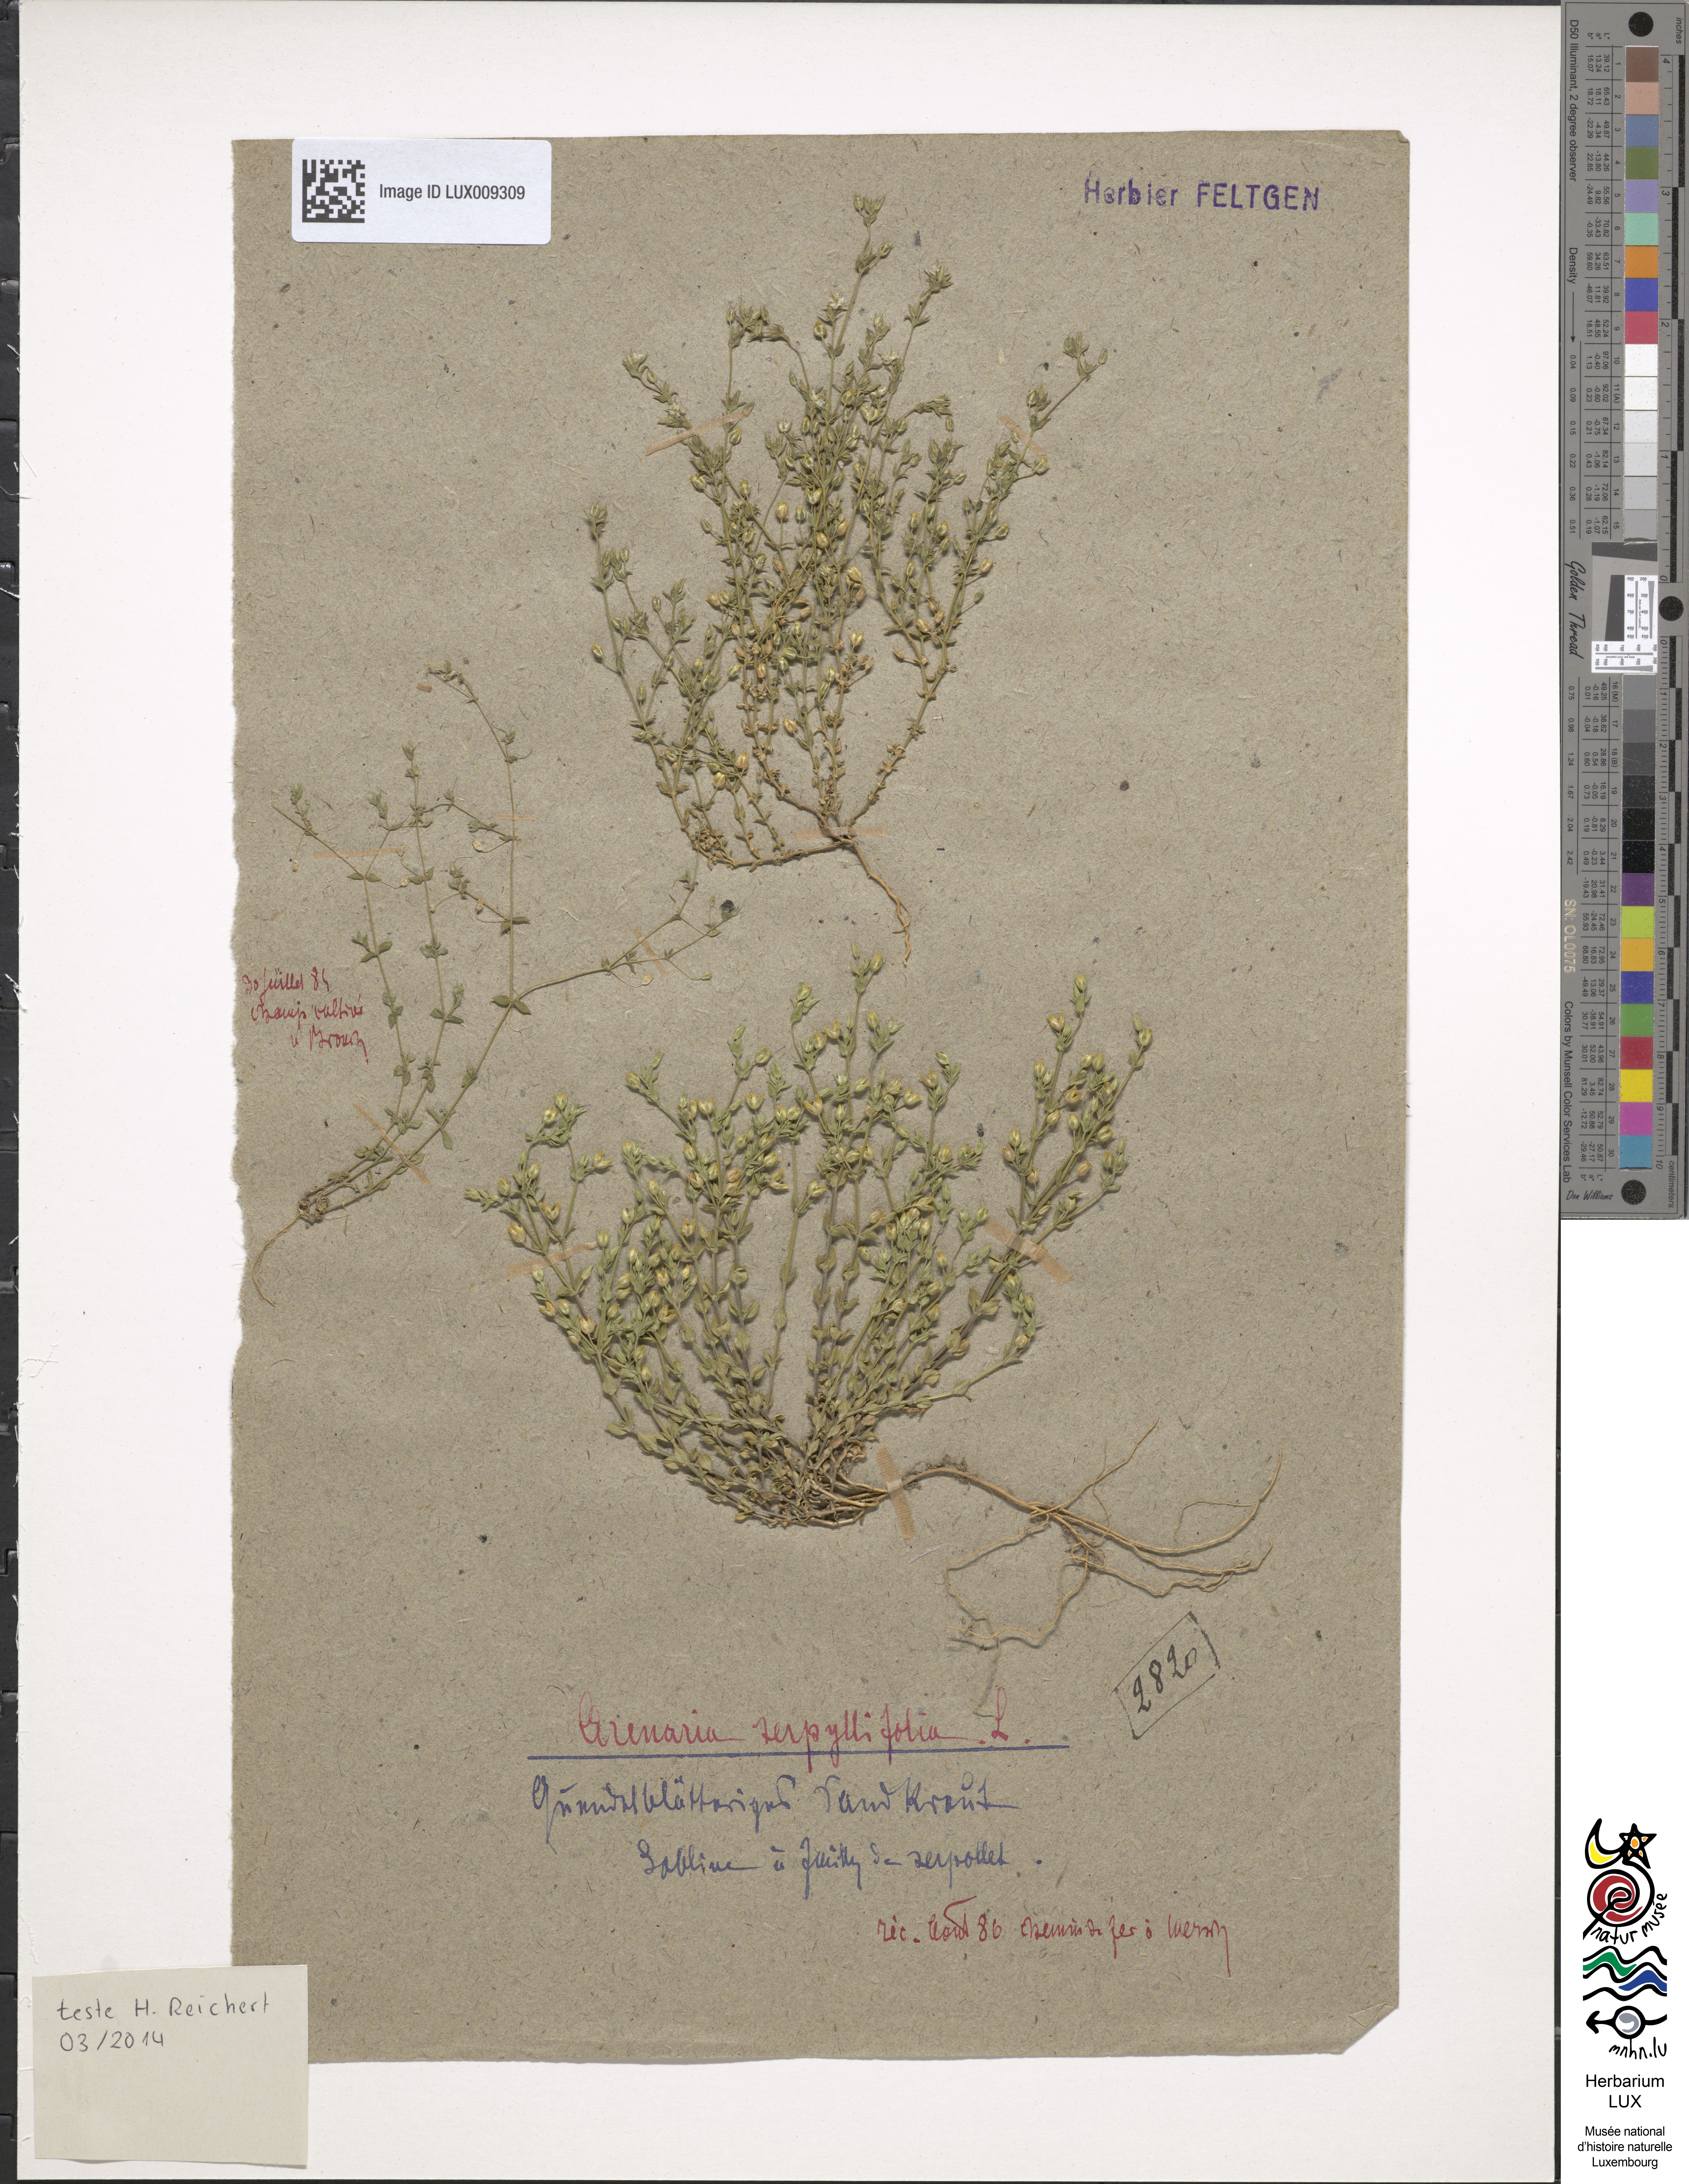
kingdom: Plantae
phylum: Tracheophyta
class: Magnoliopsida
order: Caryophyllales
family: Caryophyllaceae
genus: Arenaria
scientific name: Arenaria serpyllifolia
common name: Thyme-leaved sandwort
